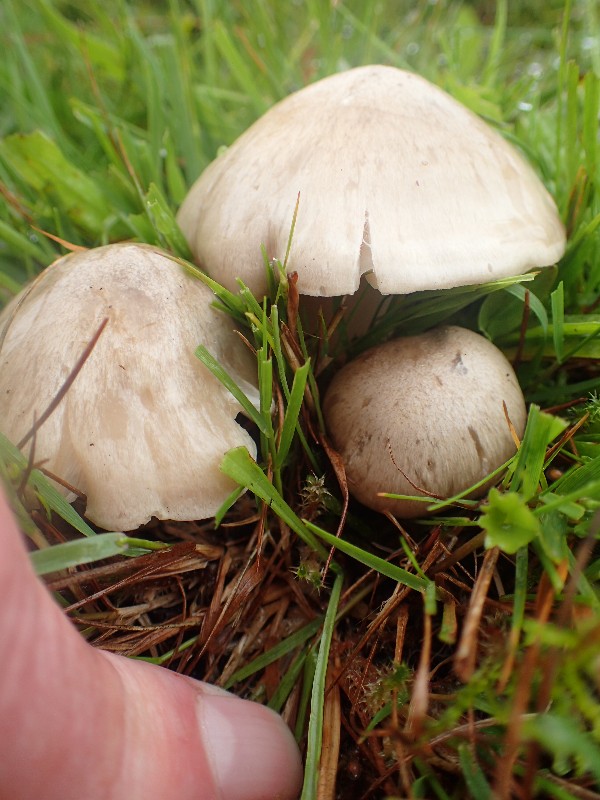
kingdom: Fungi
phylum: Basidiomycota
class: Agaricomycetes
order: Agaricales
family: Entolomataceae
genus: Entoloma
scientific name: Entoloma prunuloides
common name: mel-rødblad
